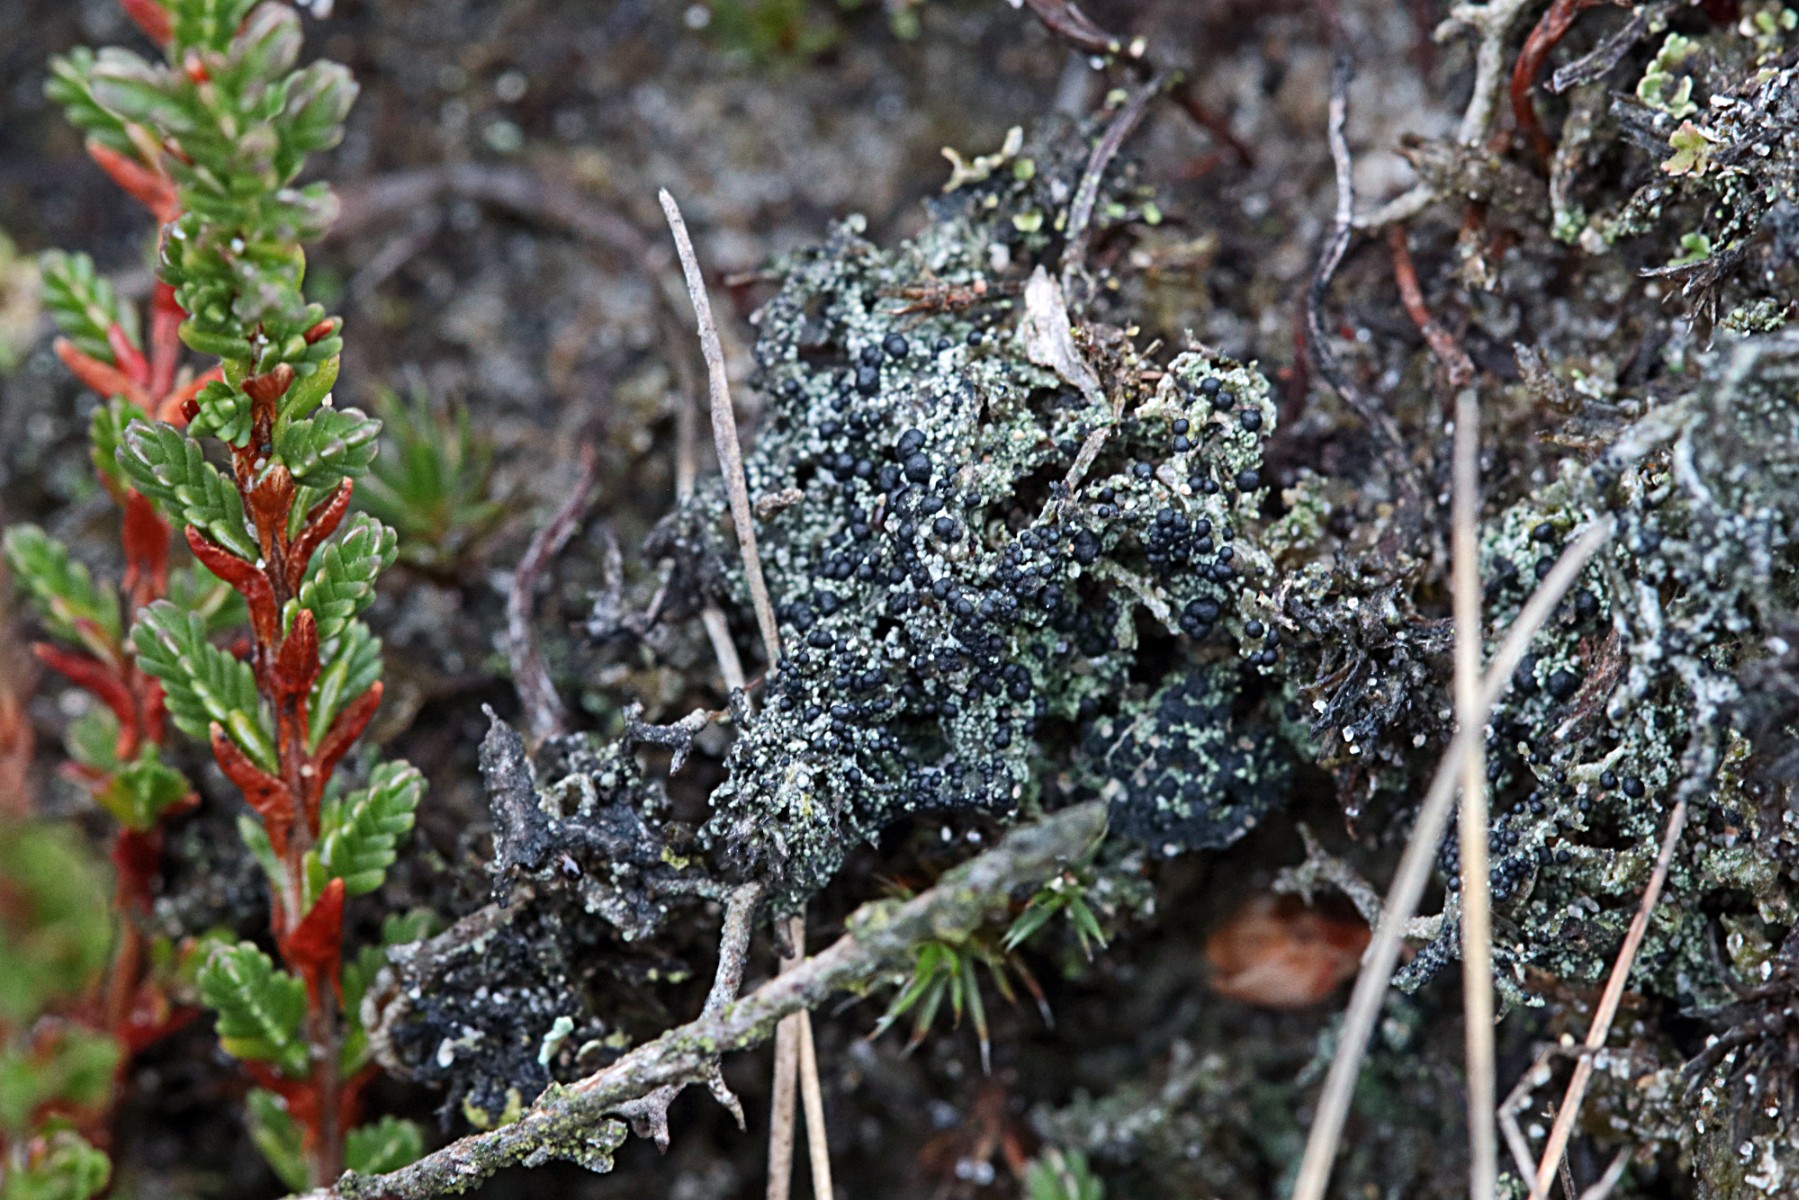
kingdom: Fungi
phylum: Ascomycota
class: Lecanoromycetes
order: Lecanorales
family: Byssolomataceae
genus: Micarea
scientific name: Micarea lignaria
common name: tørve-knaplav
